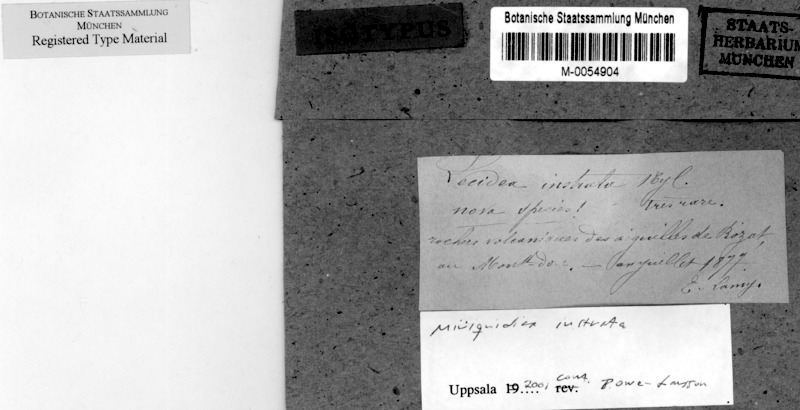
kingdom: Fungi
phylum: Ascomycota
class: Lecanoromycetes
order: Lecanorales
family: Lecanoraceae
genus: Miriquidica
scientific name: Miriquidica instrata
